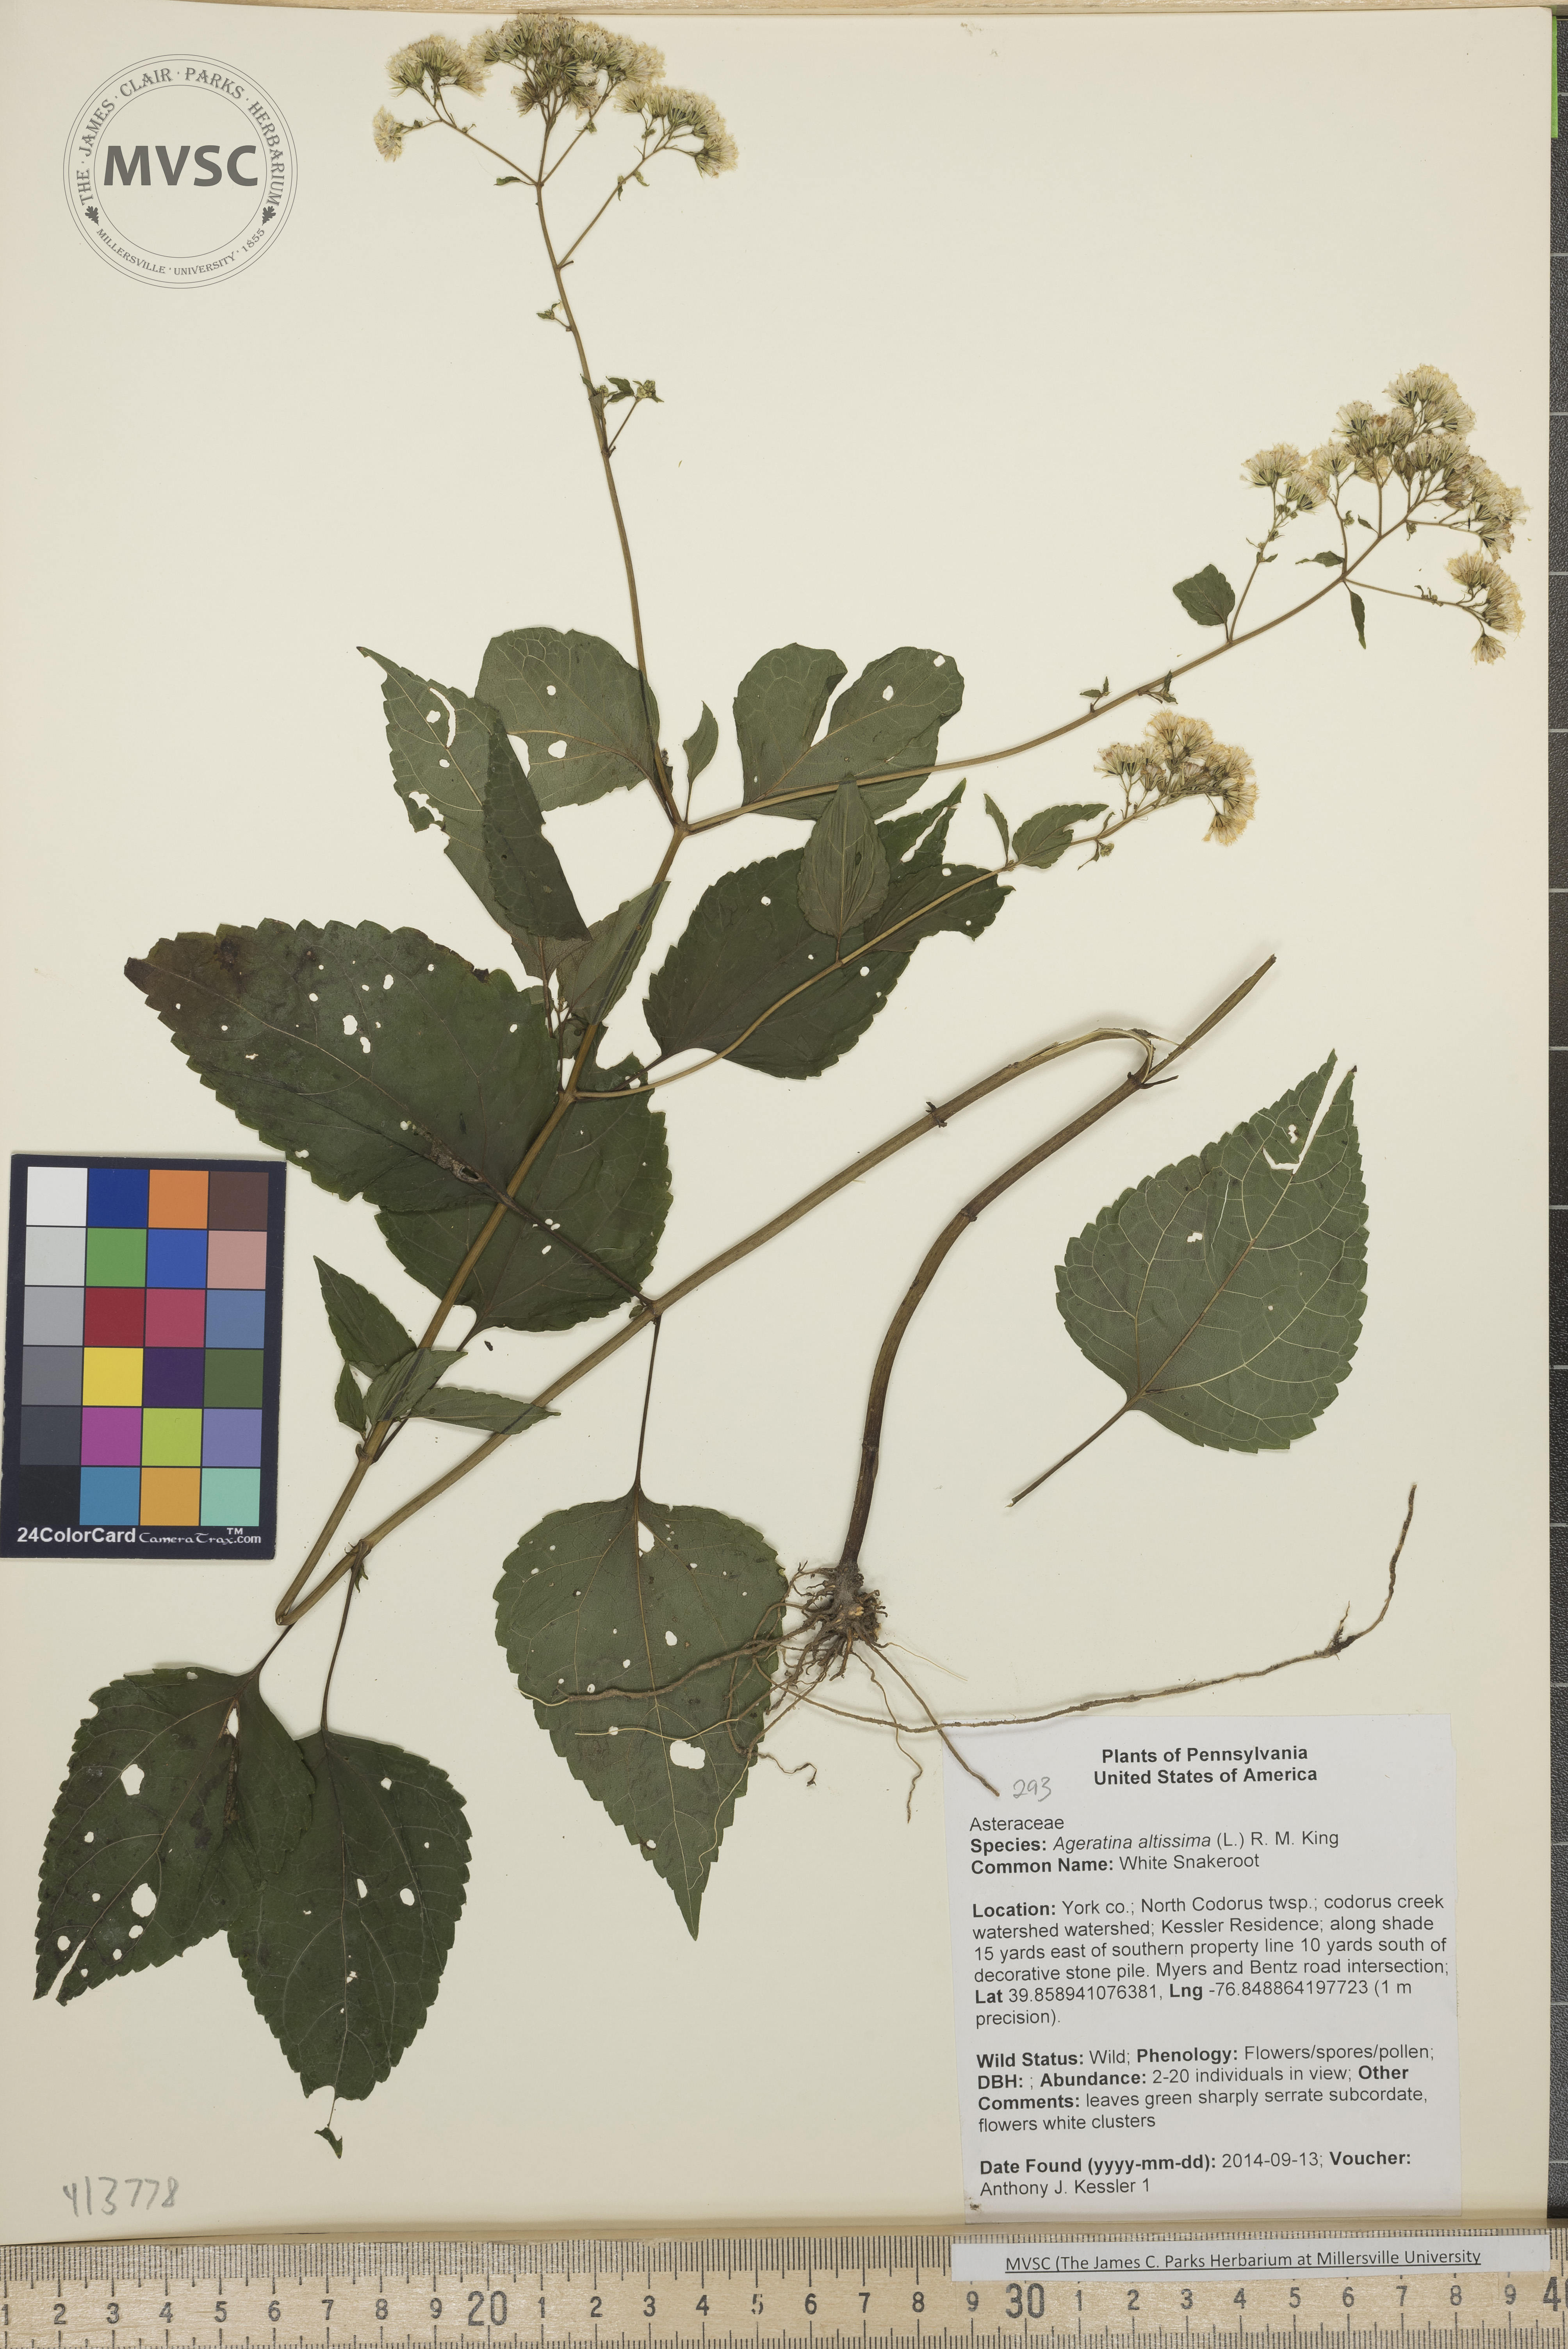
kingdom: Plantae
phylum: Tracheophyta
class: Magnoliopsida
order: Asterales
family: Asteraceae
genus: Ageratina
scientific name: Ageratina altissima
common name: White Snakeroot
